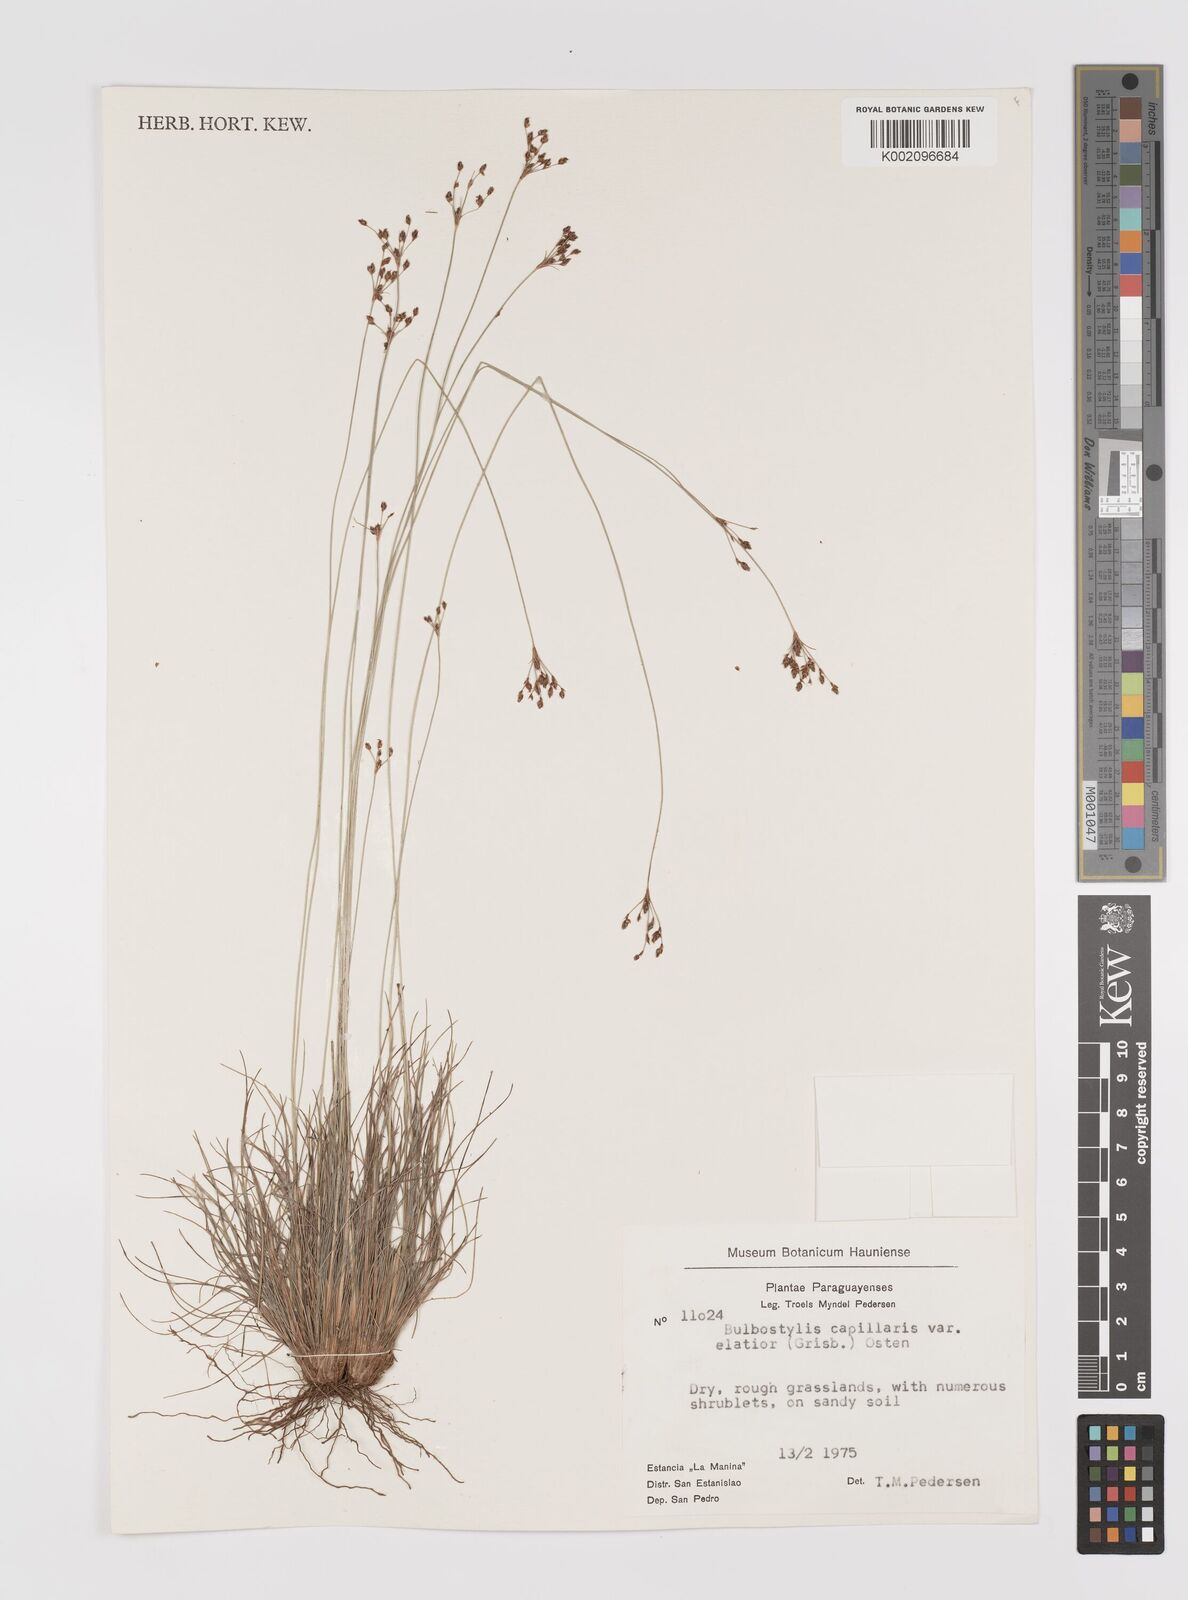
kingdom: Plantae
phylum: Tracheophyta
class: Liliopsida
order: Poales
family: Cyperaceae
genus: Bulbostylis
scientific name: Bulbostylis communis
